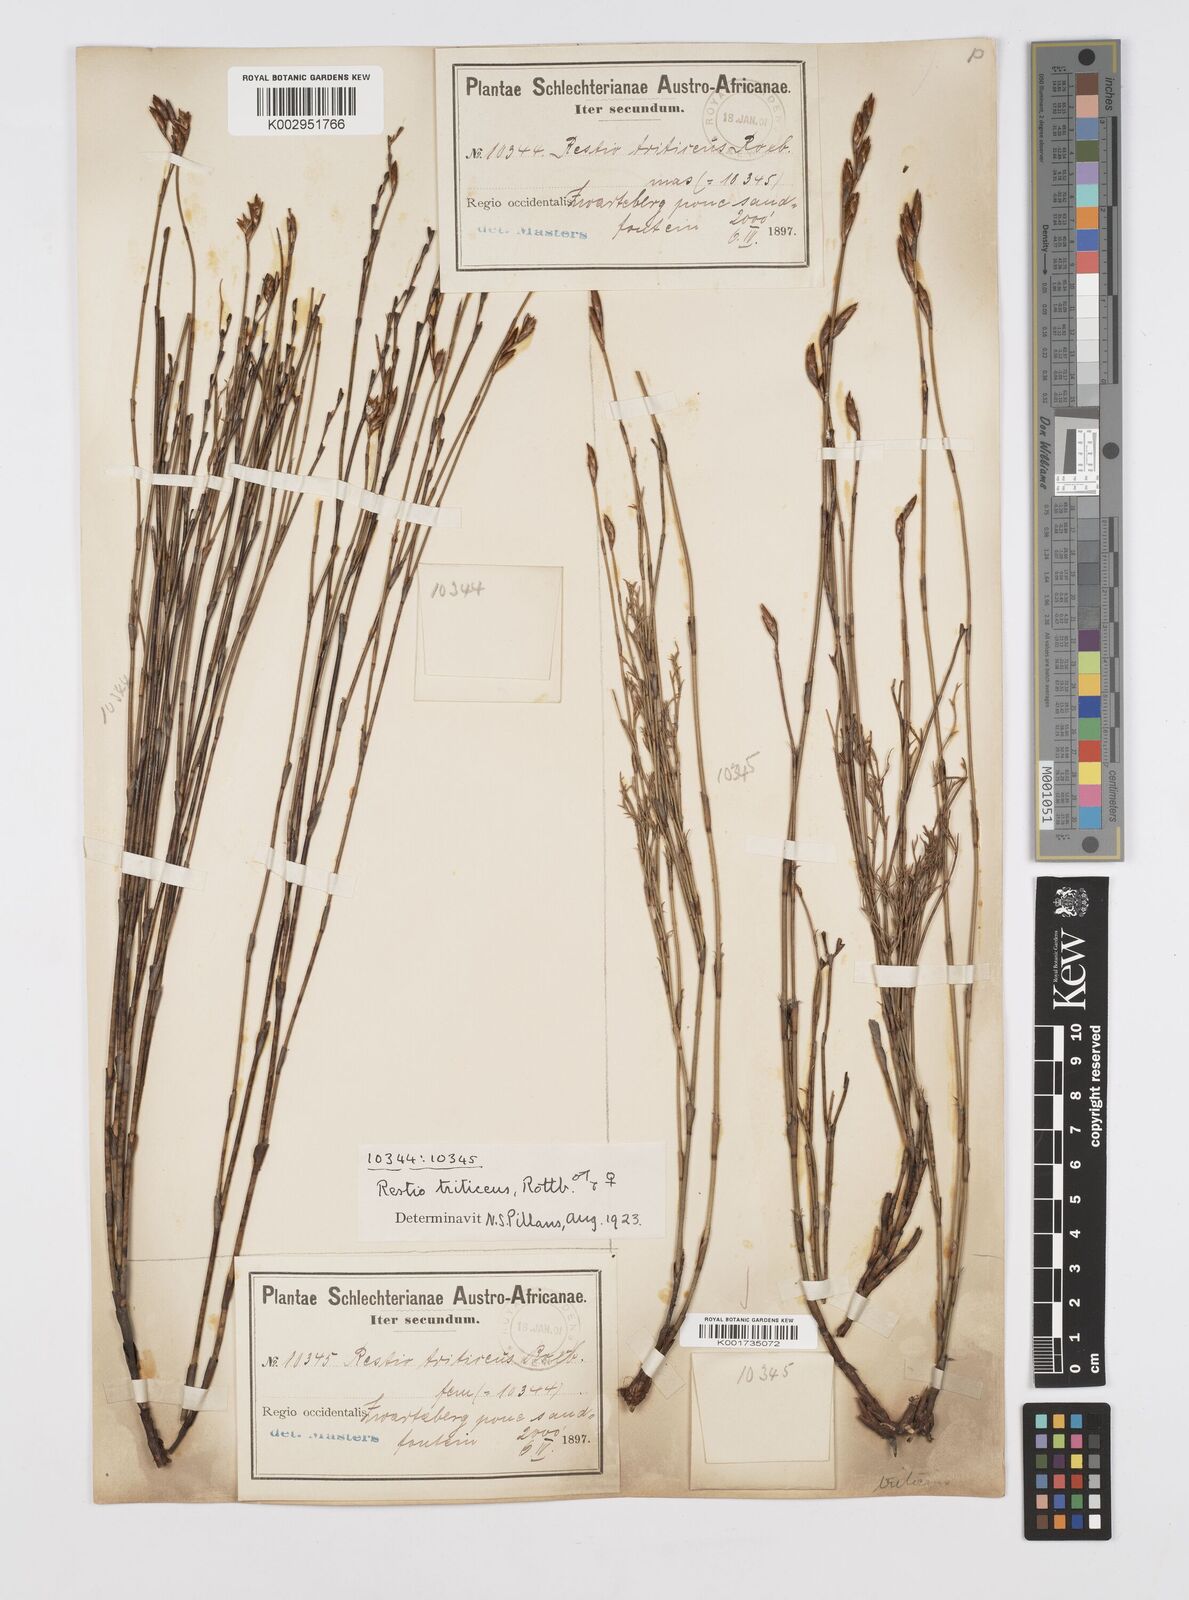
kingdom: Plantae
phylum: Tracheophyta
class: Liliopsida
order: Poales
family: Restionaceae
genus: Restio
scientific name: Restio triticeus
